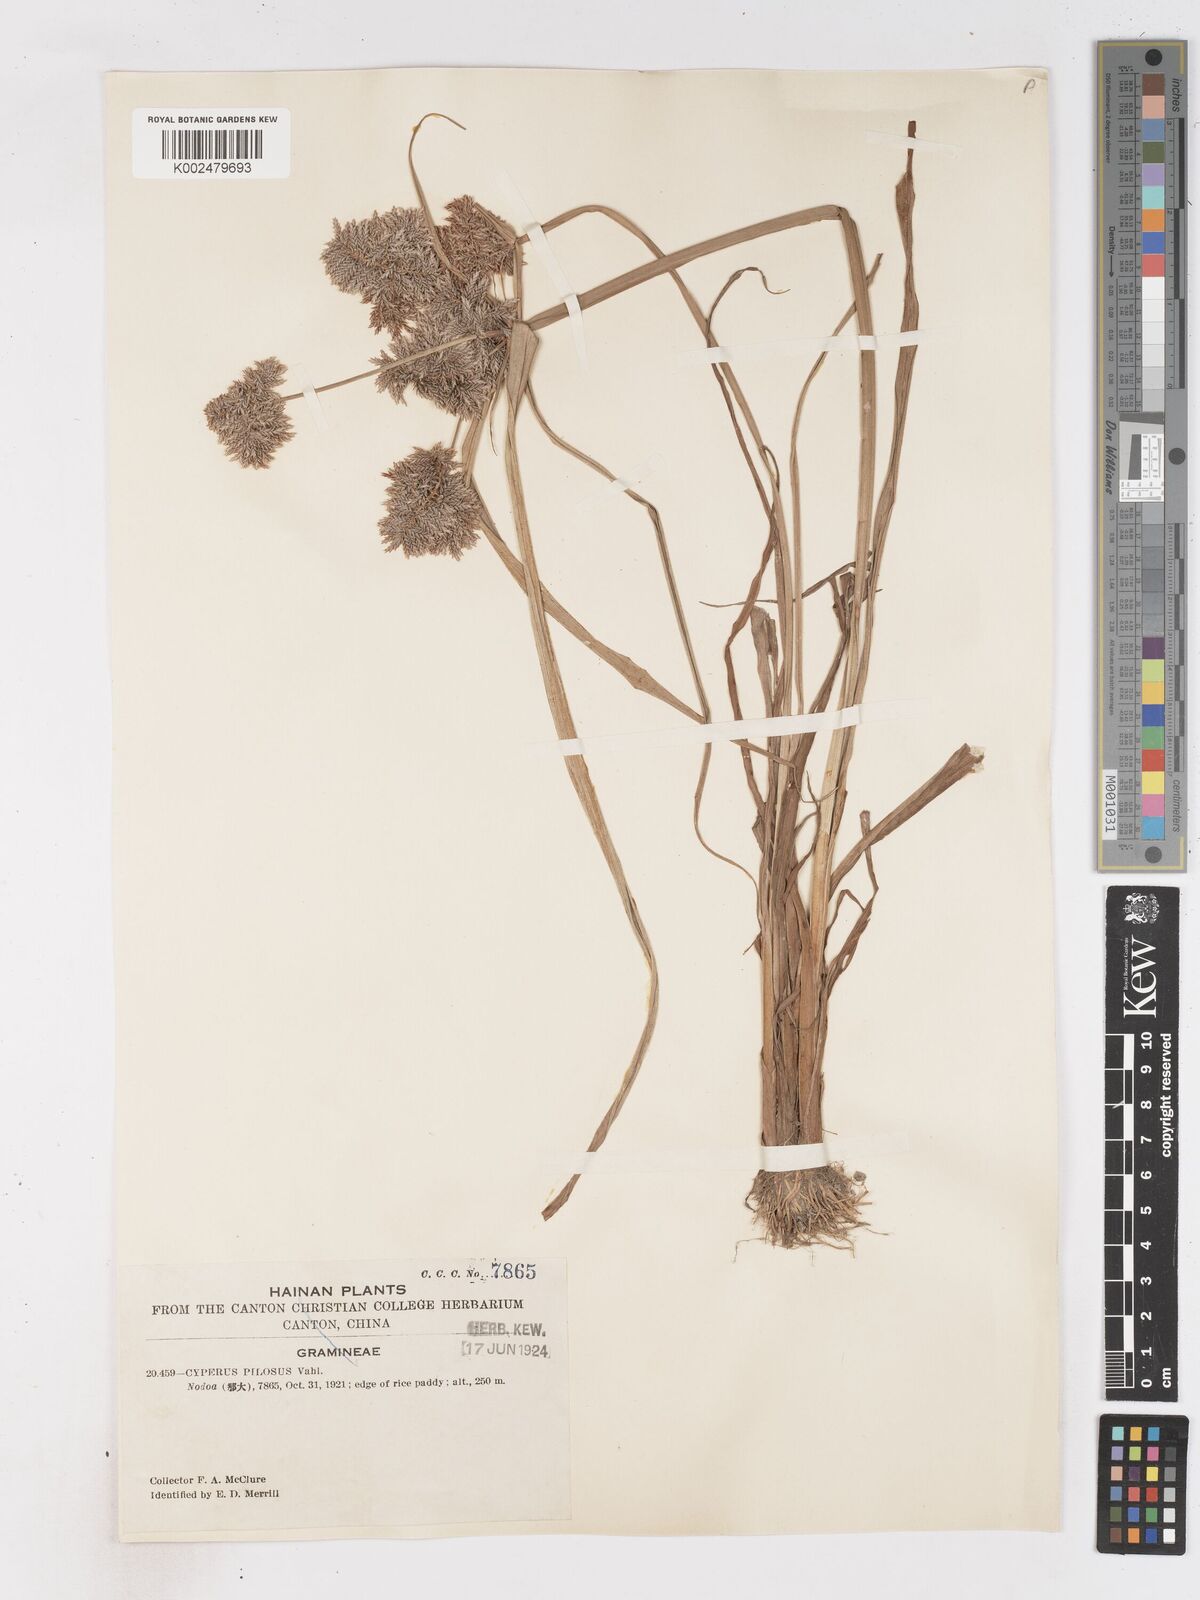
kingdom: Plantae
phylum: Tracheophyta
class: Liliopsida
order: Poales
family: Cyperaceae
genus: Cyperus
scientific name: Cyperus pilosus
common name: Fuzzy flatsedge
